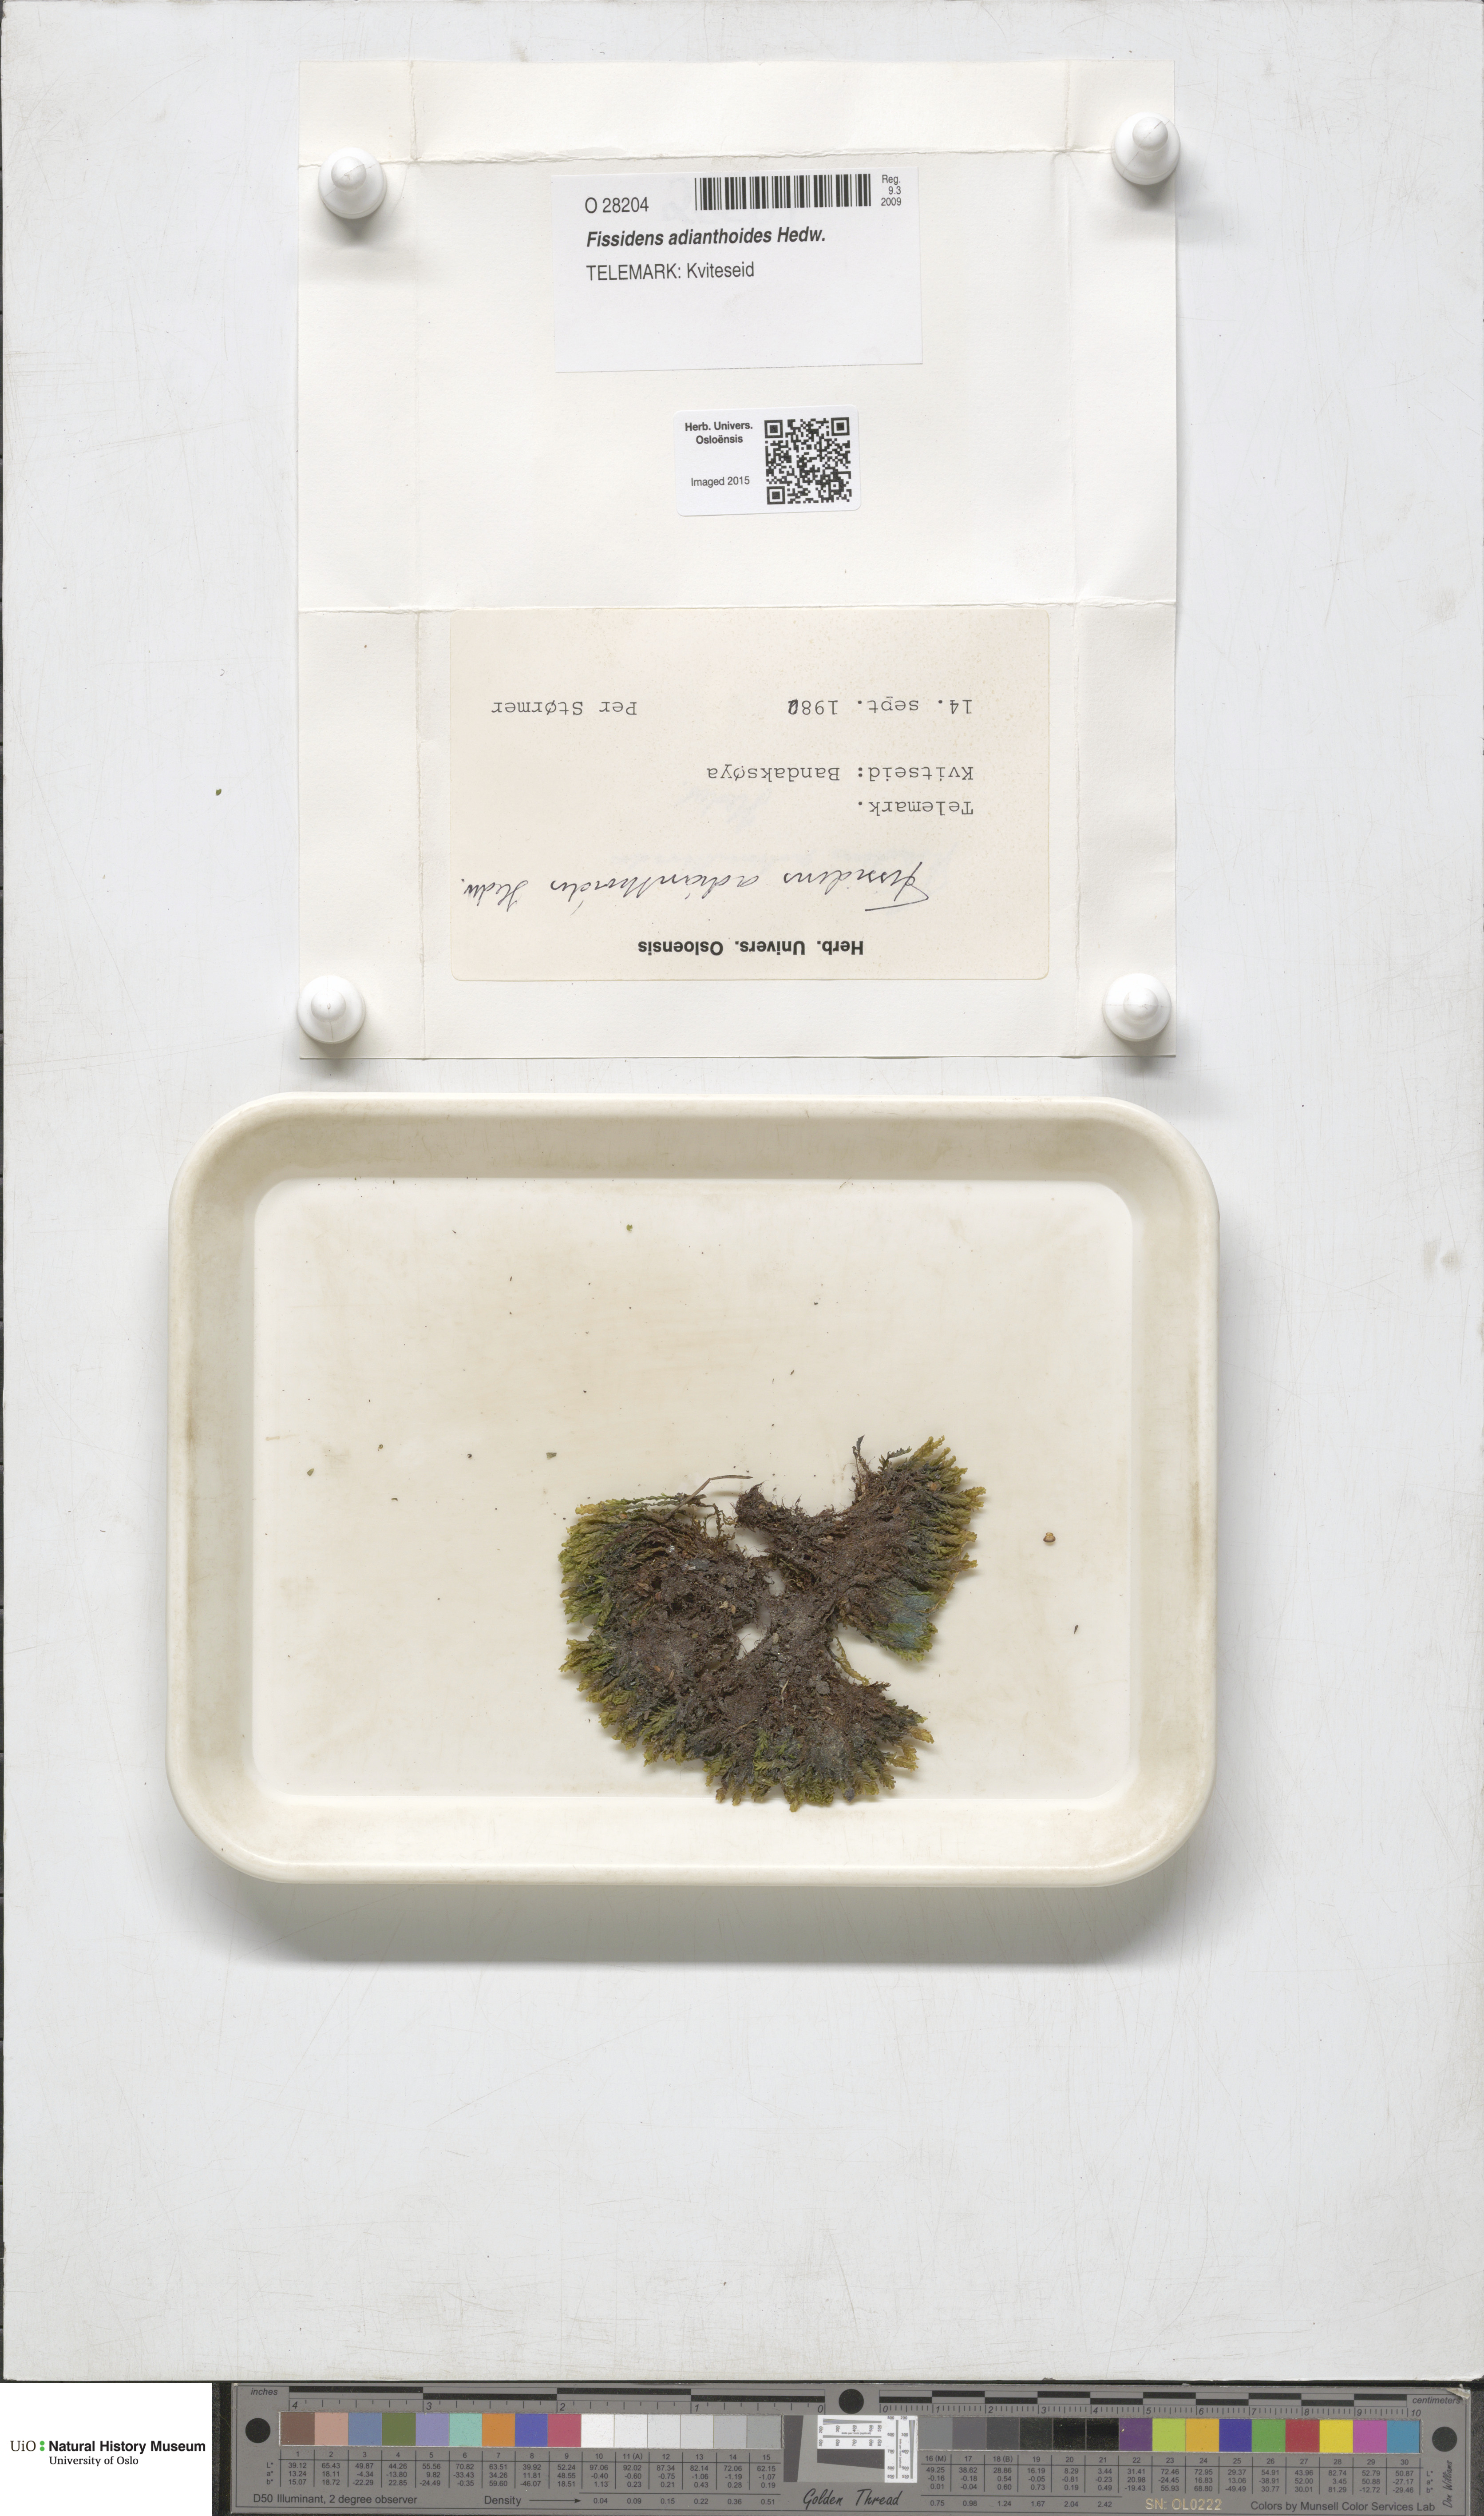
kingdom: Plantae
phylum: Bryophyta
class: Bryopsida
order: Dicranales
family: Fissidentaceae
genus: Fissidens
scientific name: Fissidens adianthoides
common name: Maidenhair pocket moss
